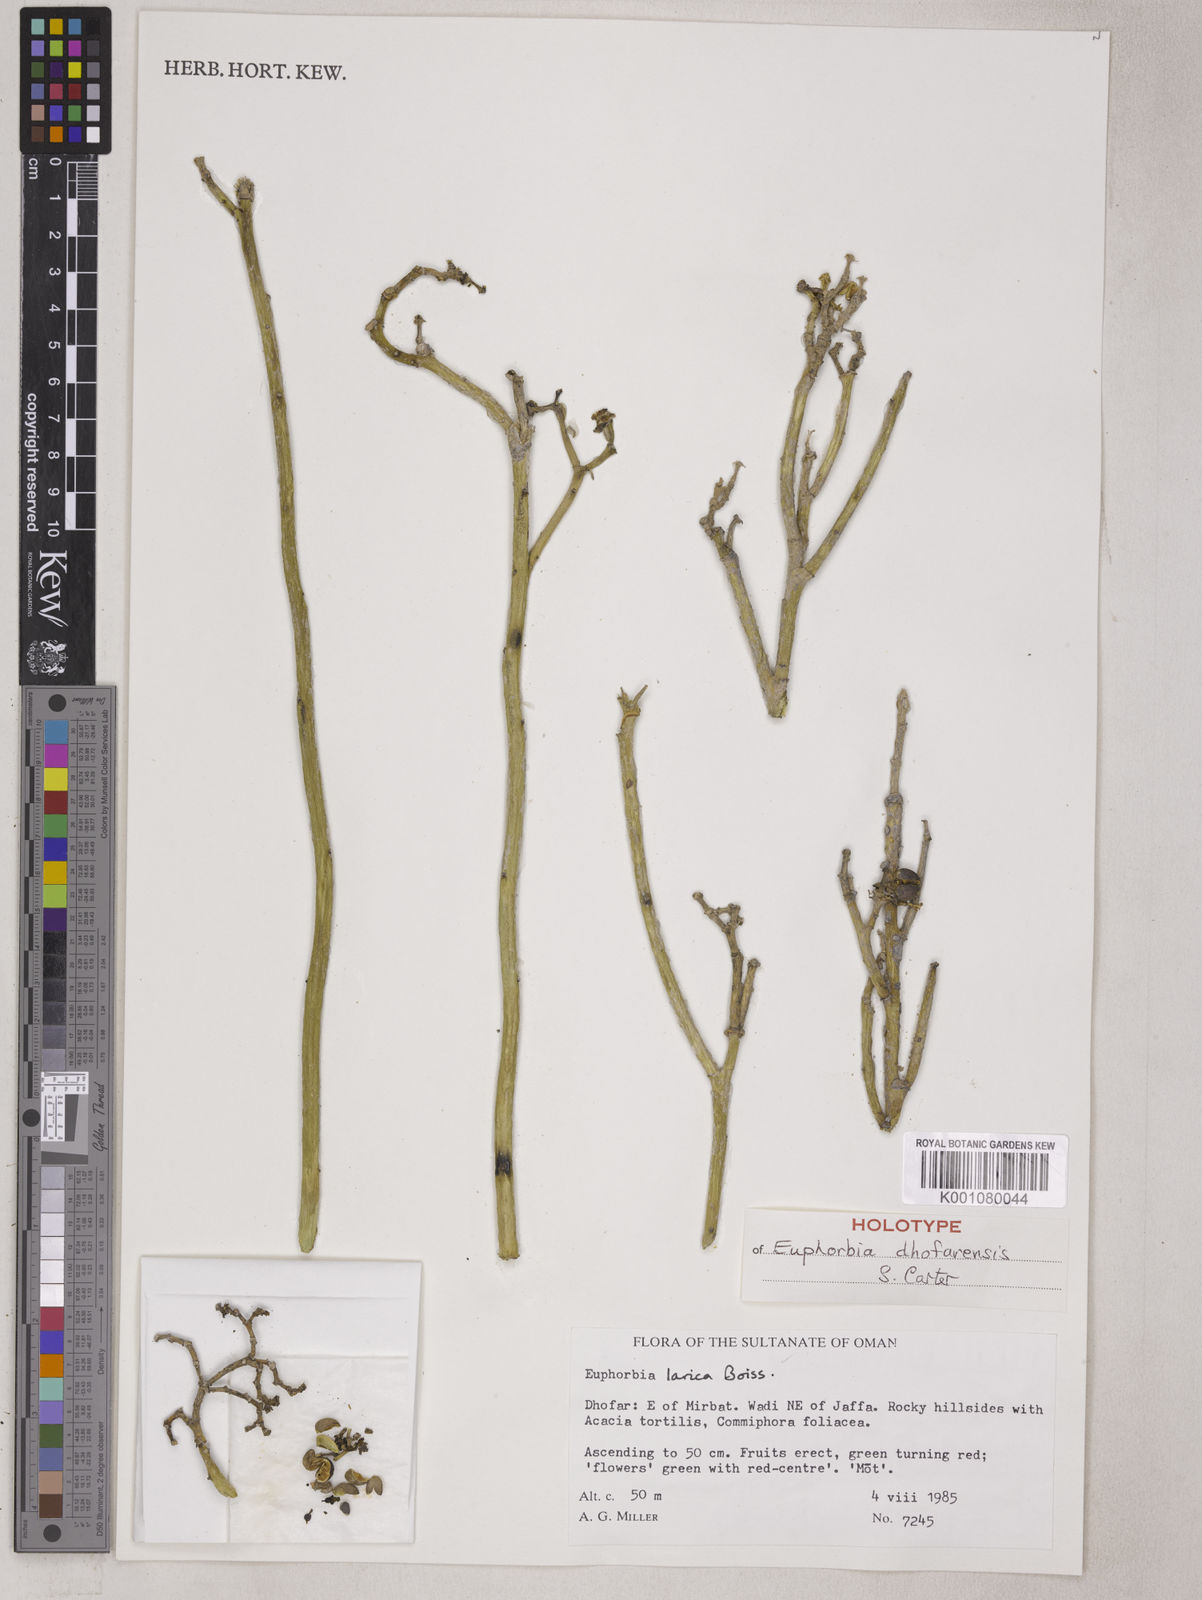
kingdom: Plantae
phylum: Tracheophyta
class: Magnoliopsida
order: Malpighiales
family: Euphorbiaceae
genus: Euphorbia
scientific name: Euphorbia dhofarensis
